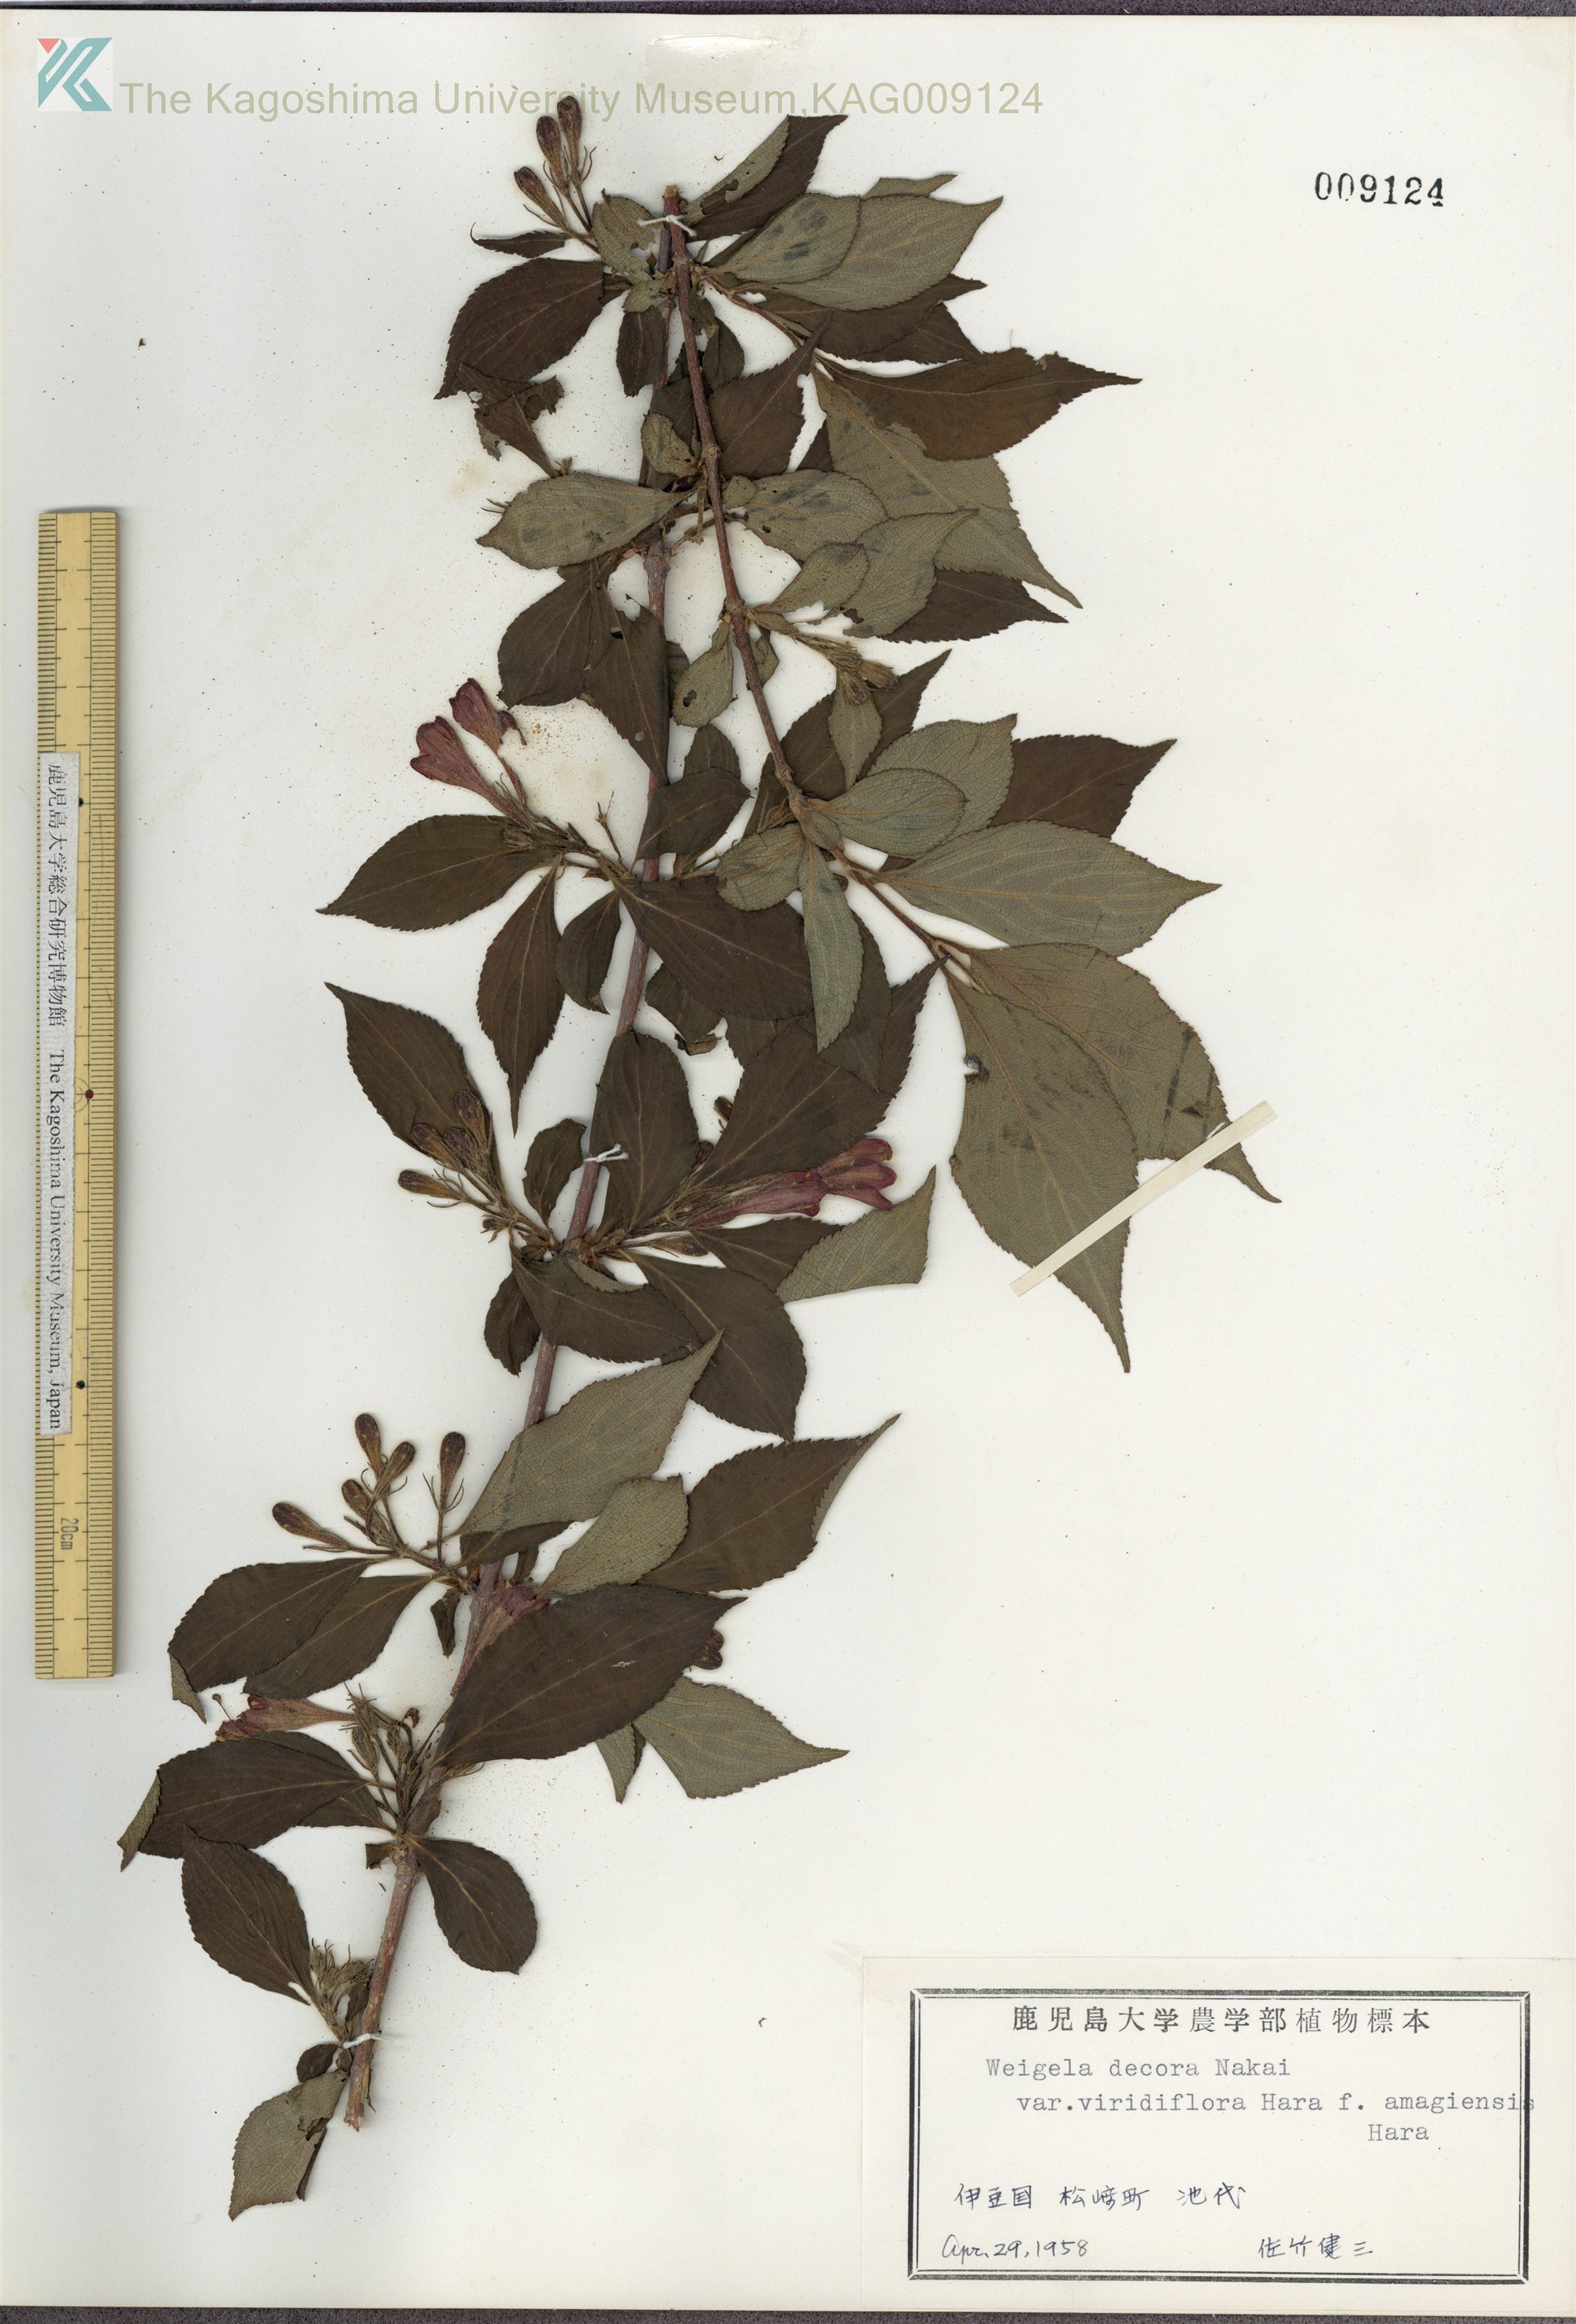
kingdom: Plantae
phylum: Tracheophyta
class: Magnoliopsida
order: Dipsacales
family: Caprifoliaceae
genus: Weigela
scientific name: Weigela decora
